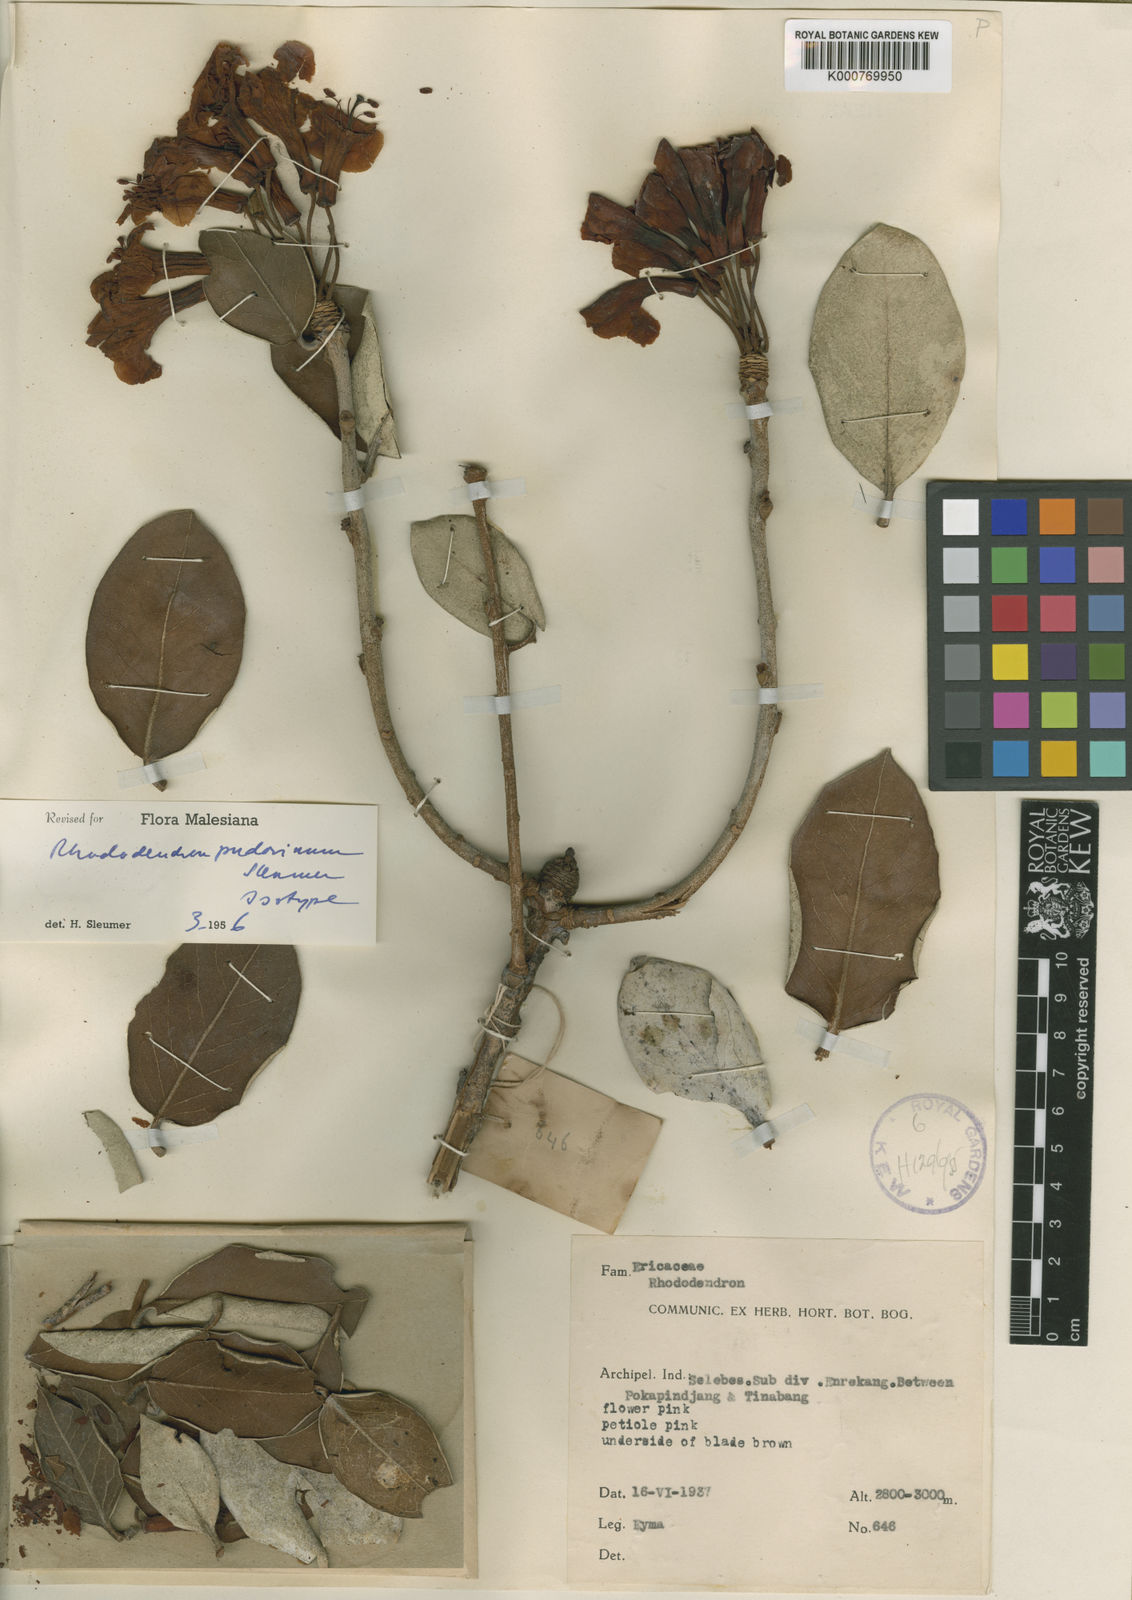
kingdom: Plantae
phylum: Tracheophyta
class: Magnoliopsida
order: Ericales
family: Ericaceae
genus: Rhododendron
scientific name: Rhododendron pudorinum
